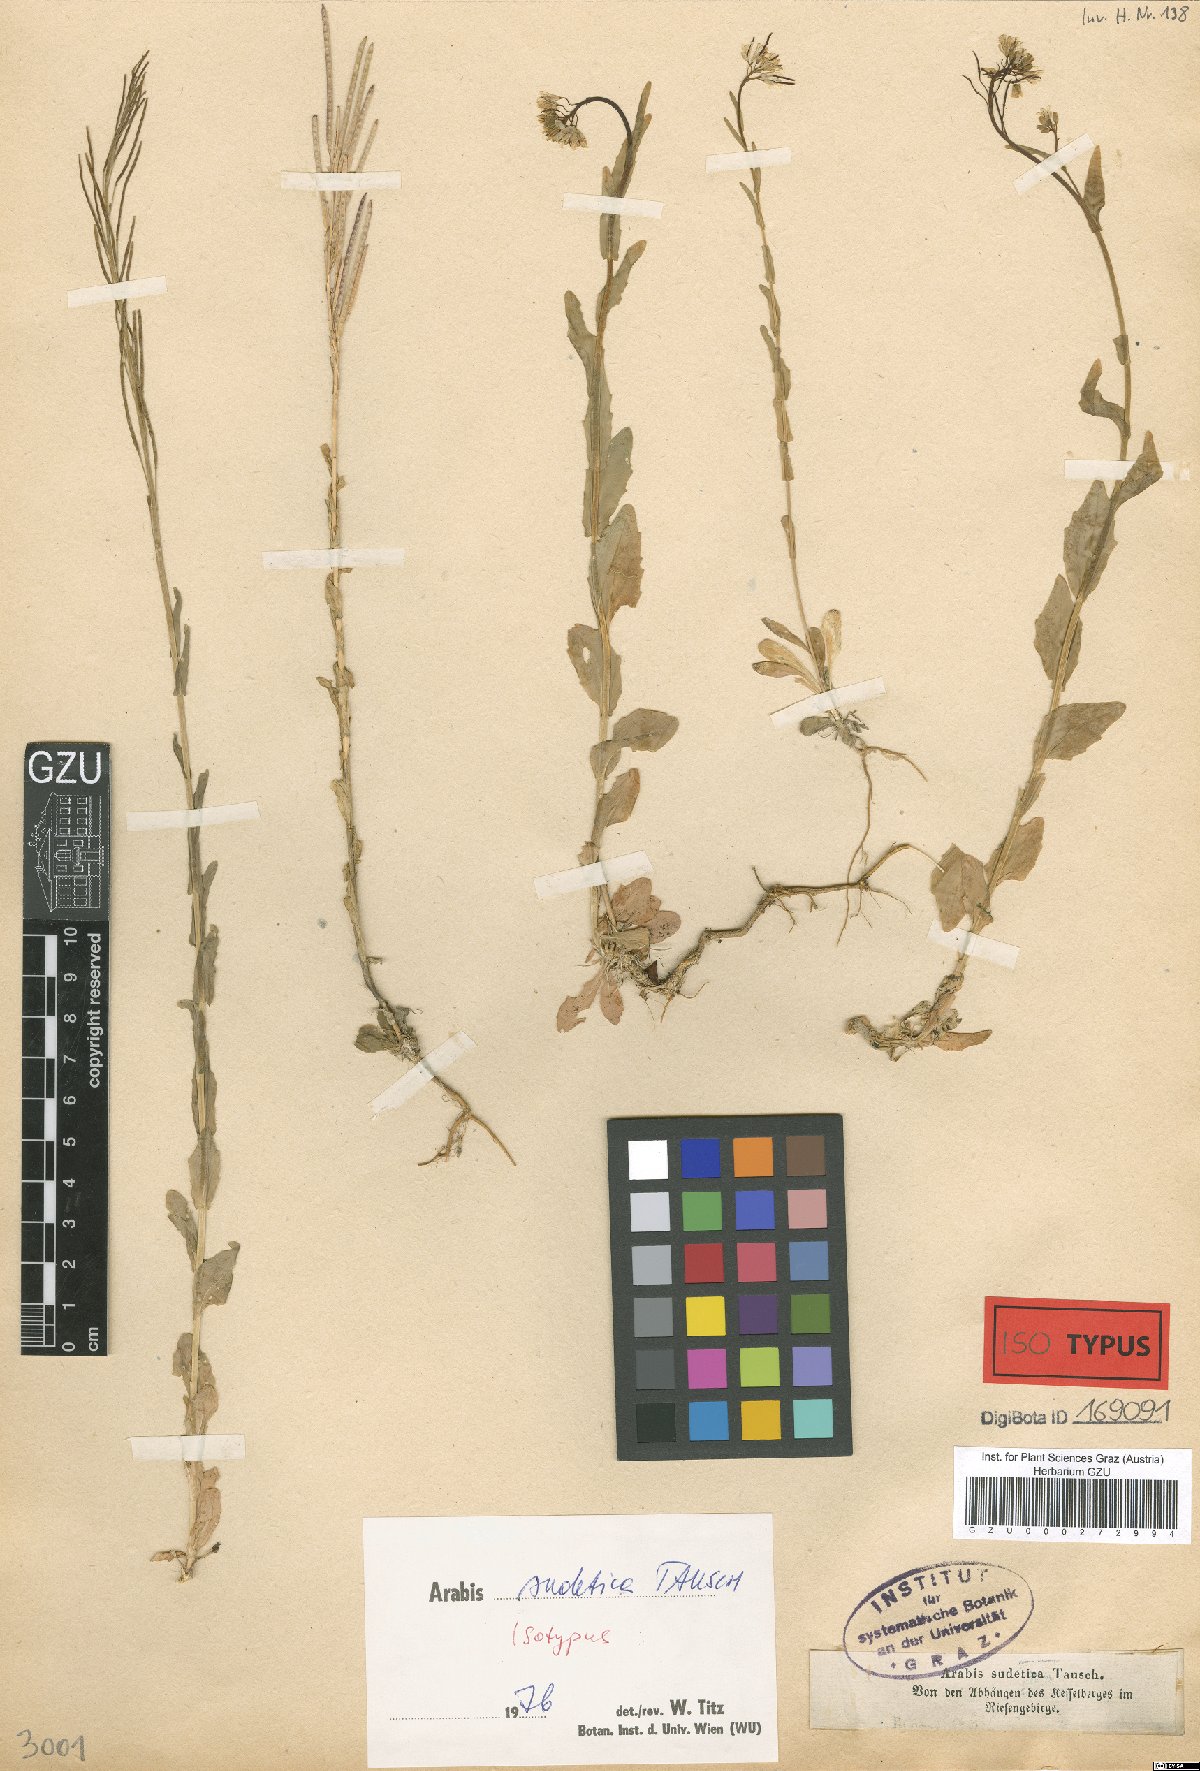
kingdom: Plantae
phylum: Tracheophyta
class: Magnoliopsida
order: Brassicales
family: Brassicaceae
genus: Arabis
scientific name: Arabis sudetica
